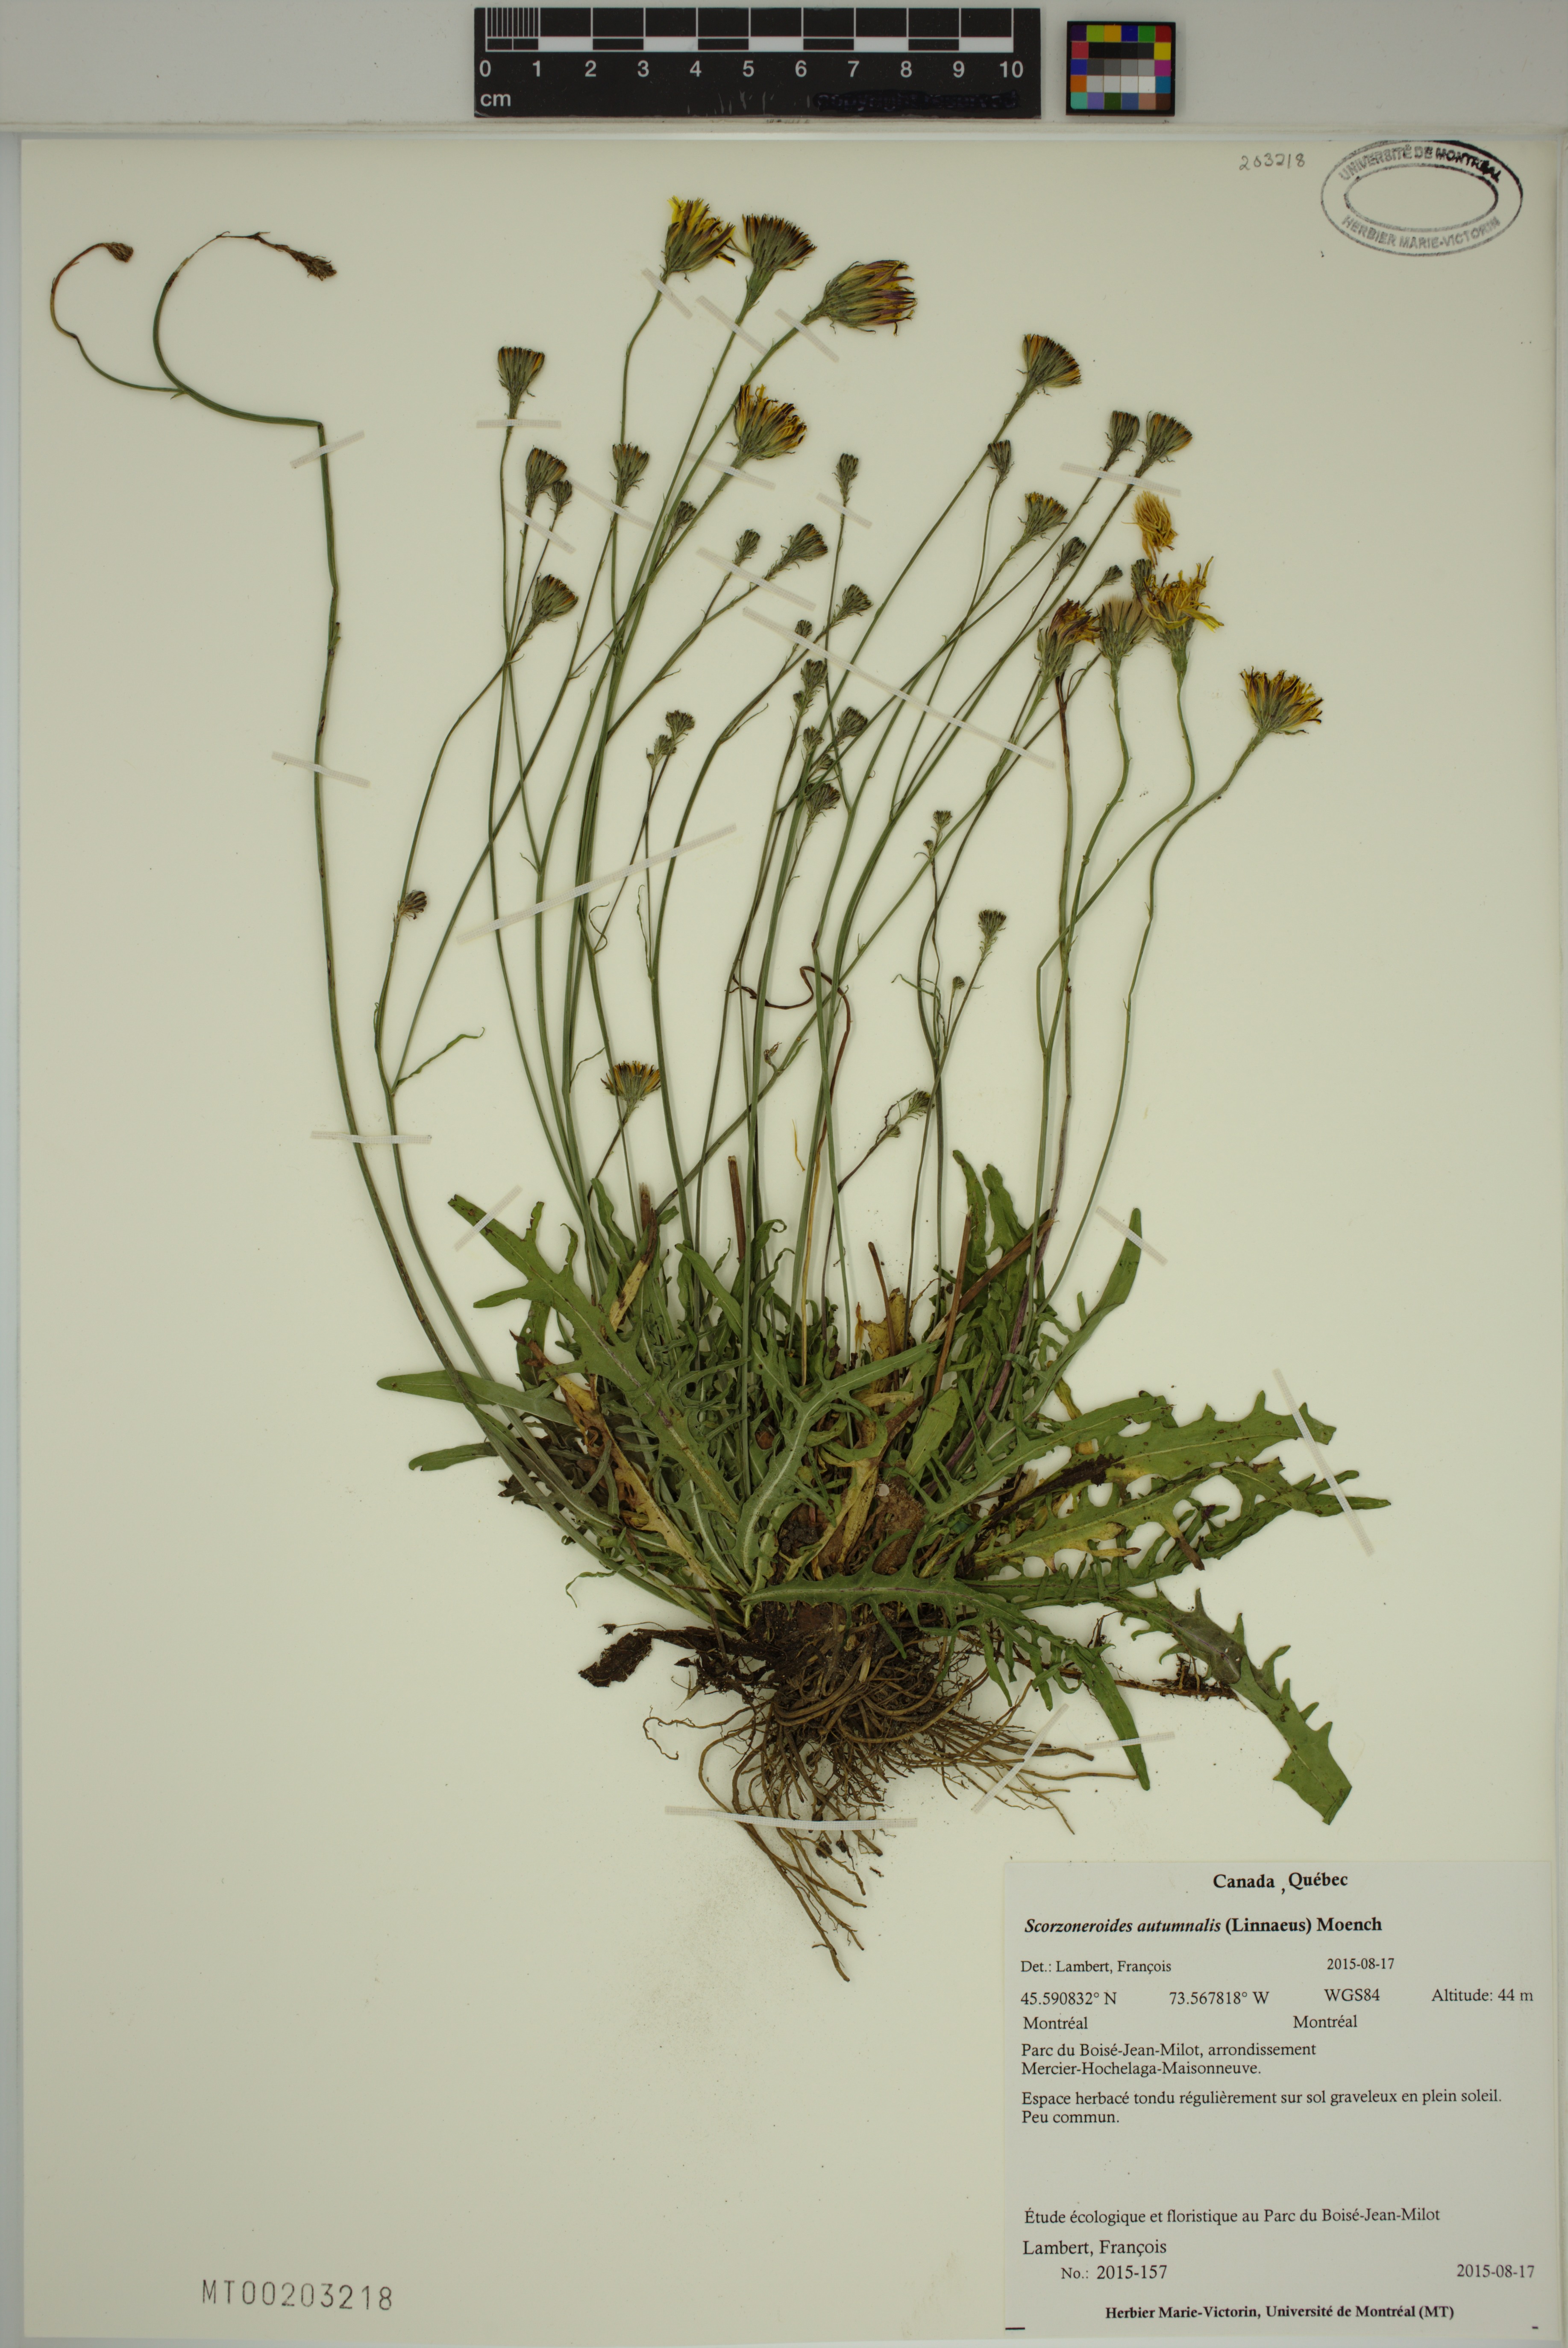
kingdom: Plantae
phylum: Tracheophyta
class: Magnoliopsida
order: Asterales
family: Asteraceae
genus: Scorzoneroides
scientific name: Scorzoneroides autumnalis
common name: Autumn hawkbit
